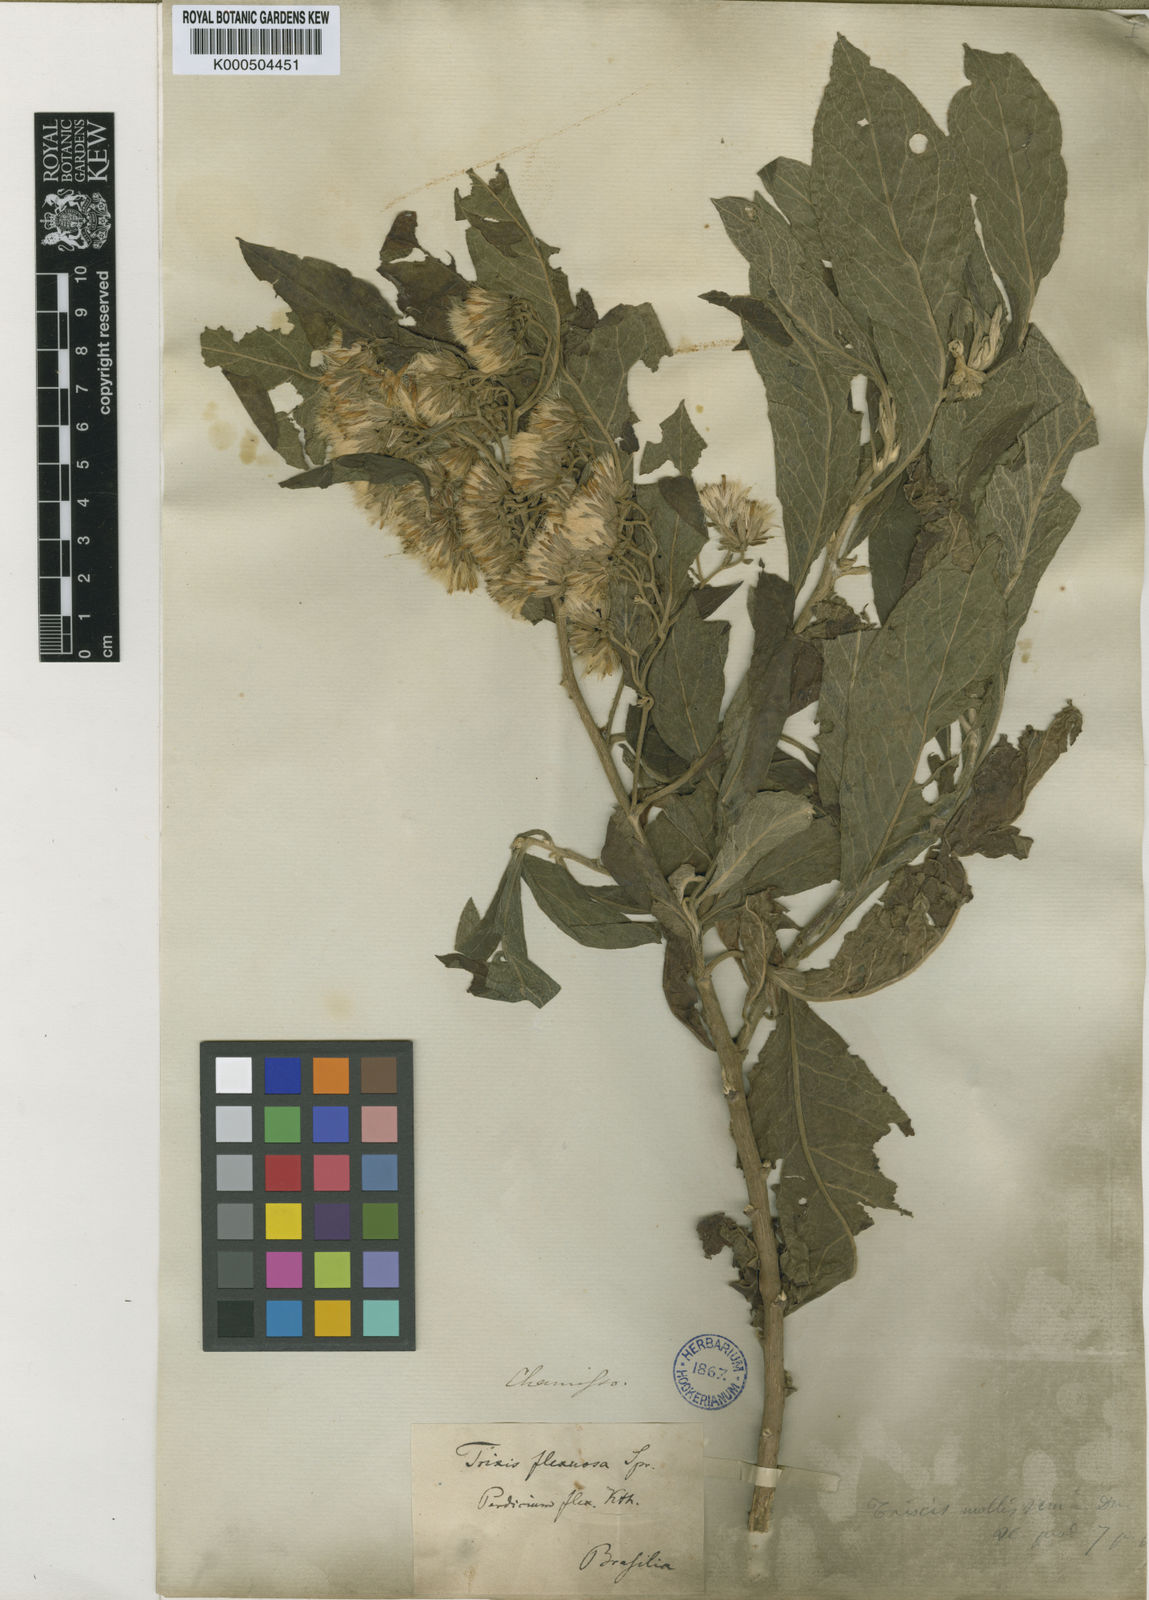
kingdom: Plantae
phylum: Tracheophyta
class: Magnoliopsida
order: Asterales
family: Asteraceae
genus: Trixis
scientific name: Trixis praestans
